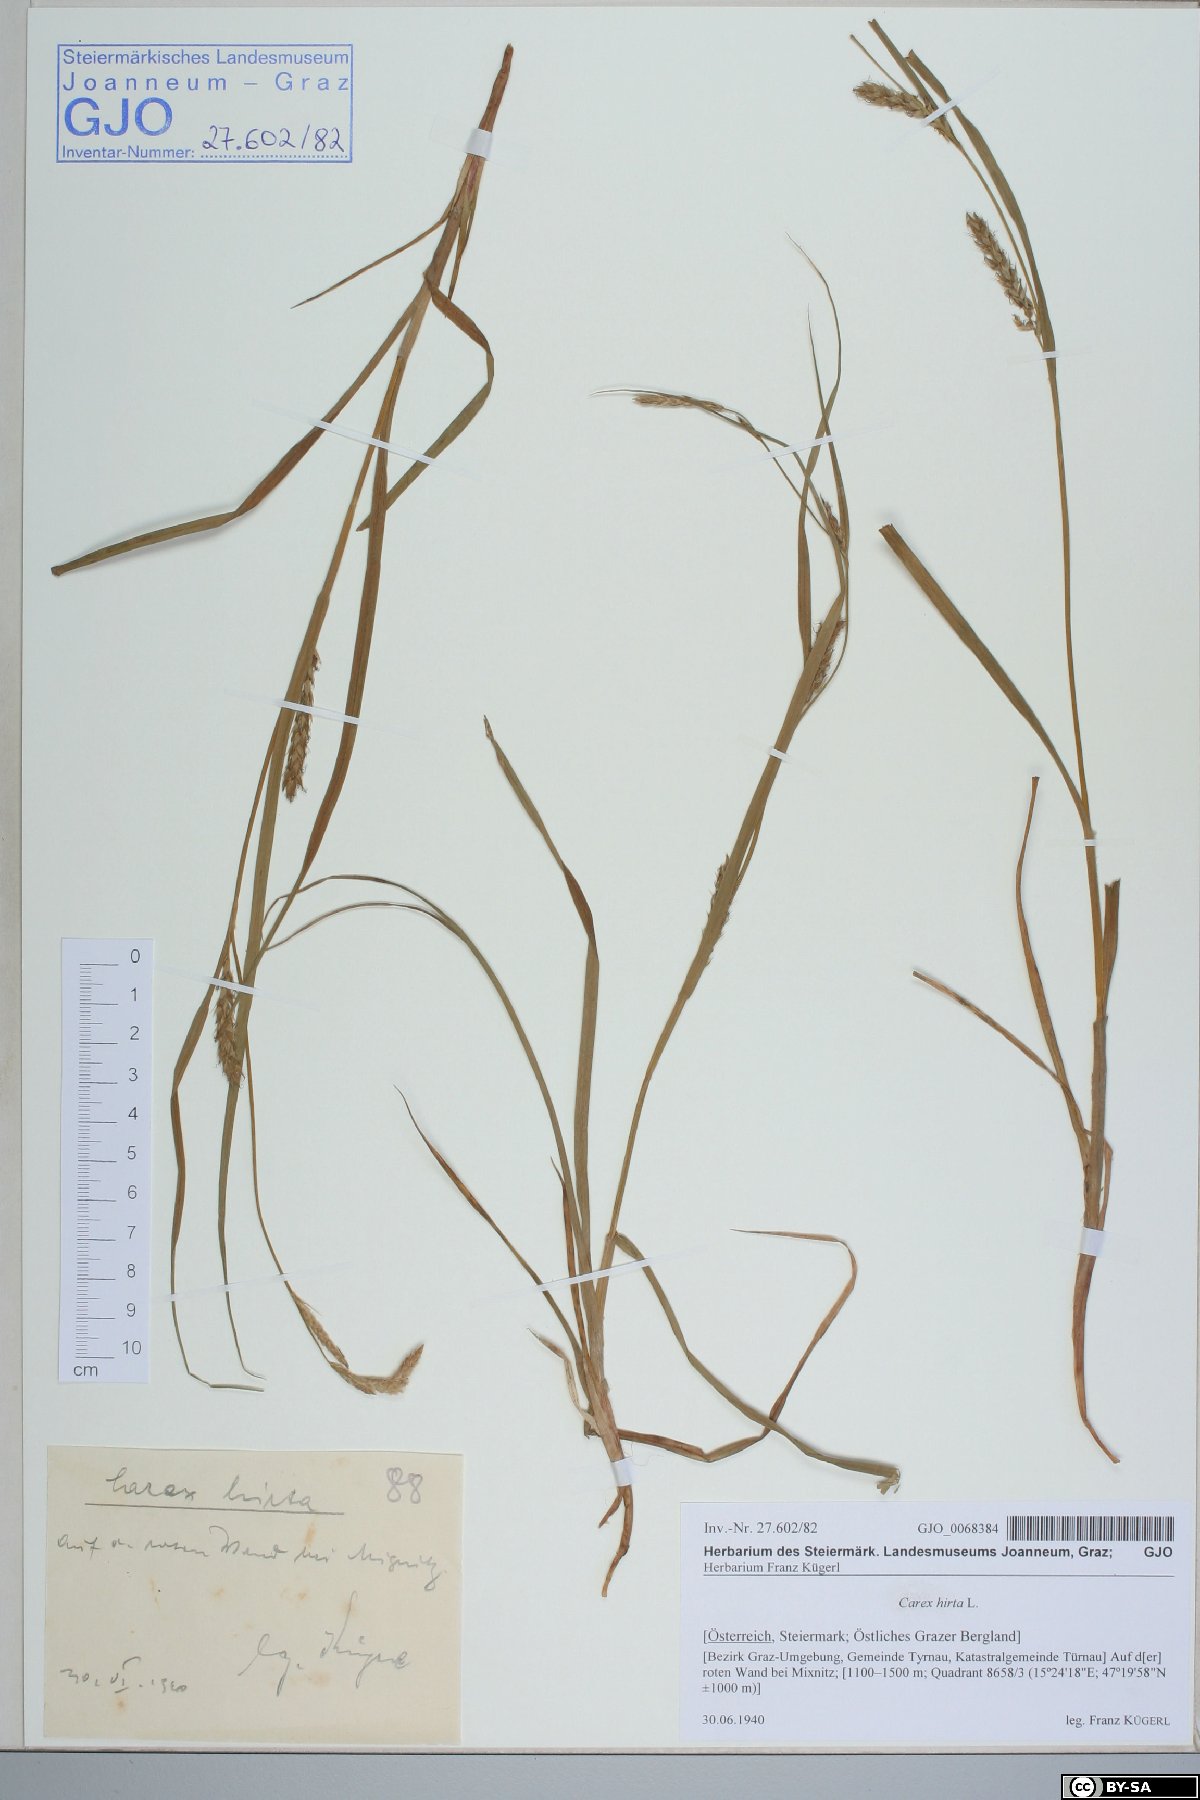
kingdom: Plantae
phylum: Tracheophyta
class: Liliopsida
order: Poales
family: Cyperaceae
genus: Carex
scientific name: Carex hirta
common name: Hairy sedge
